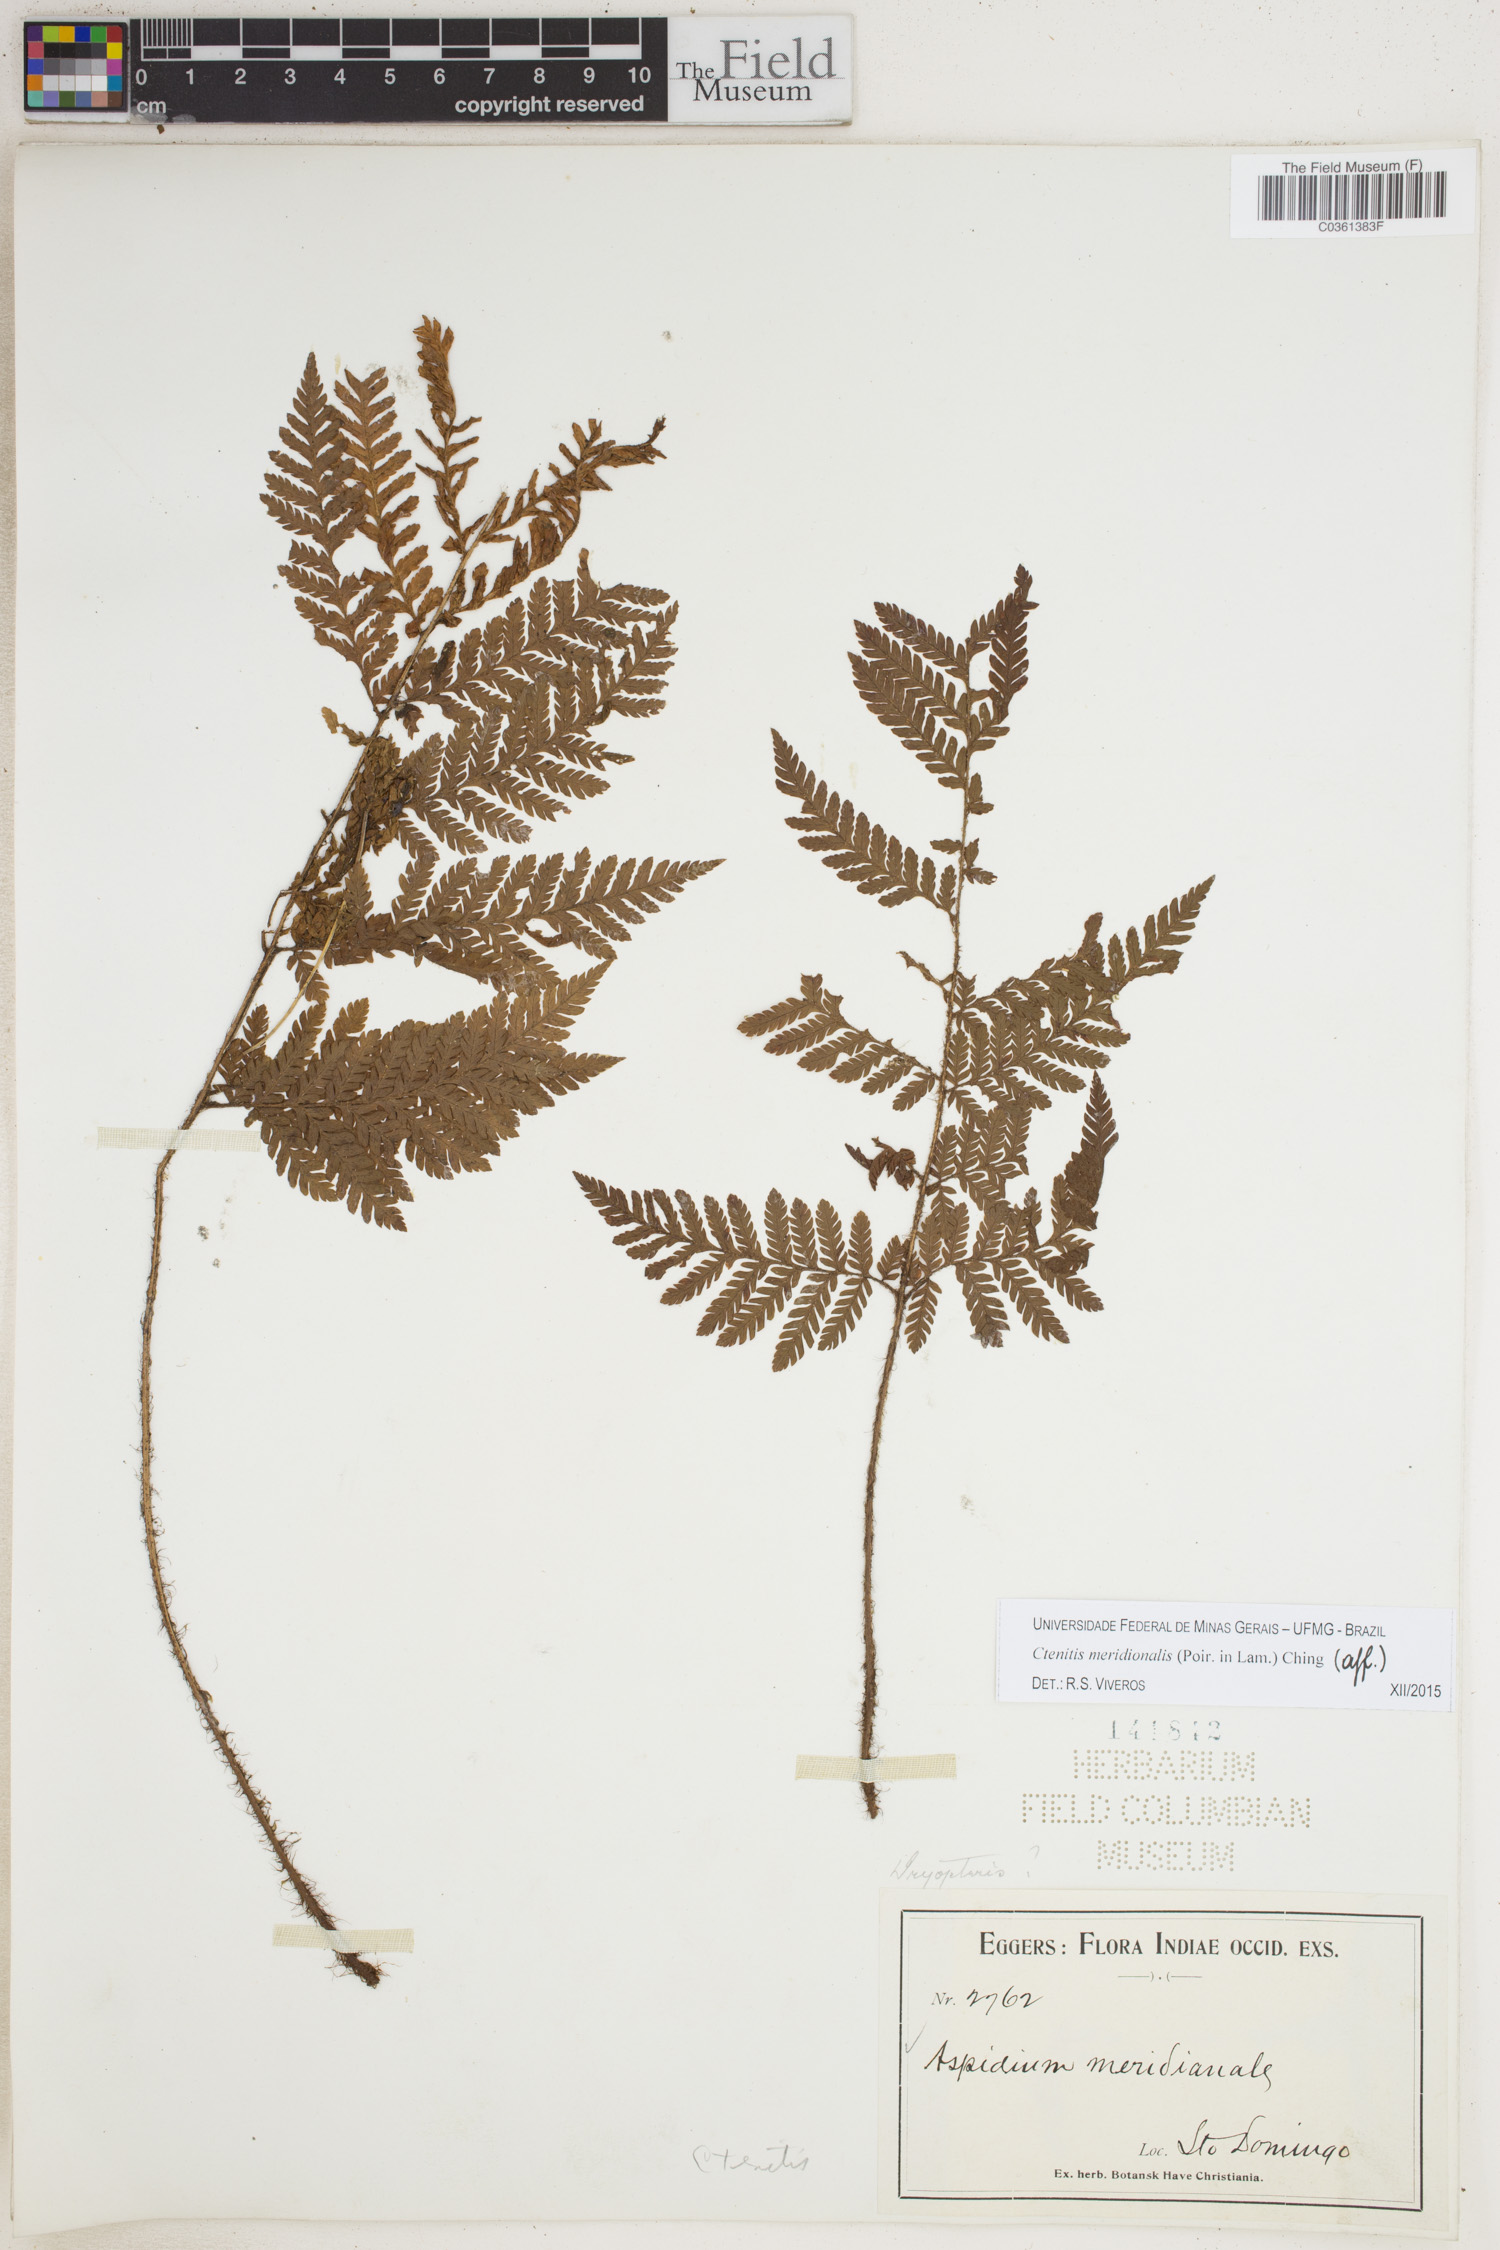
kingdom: Plantae
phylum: Tracheophyta
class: Polypodiopsida
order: Polypodiales
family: Dryopteridaceae
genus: Ctenitis
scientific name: Ctenitis meridionalis
